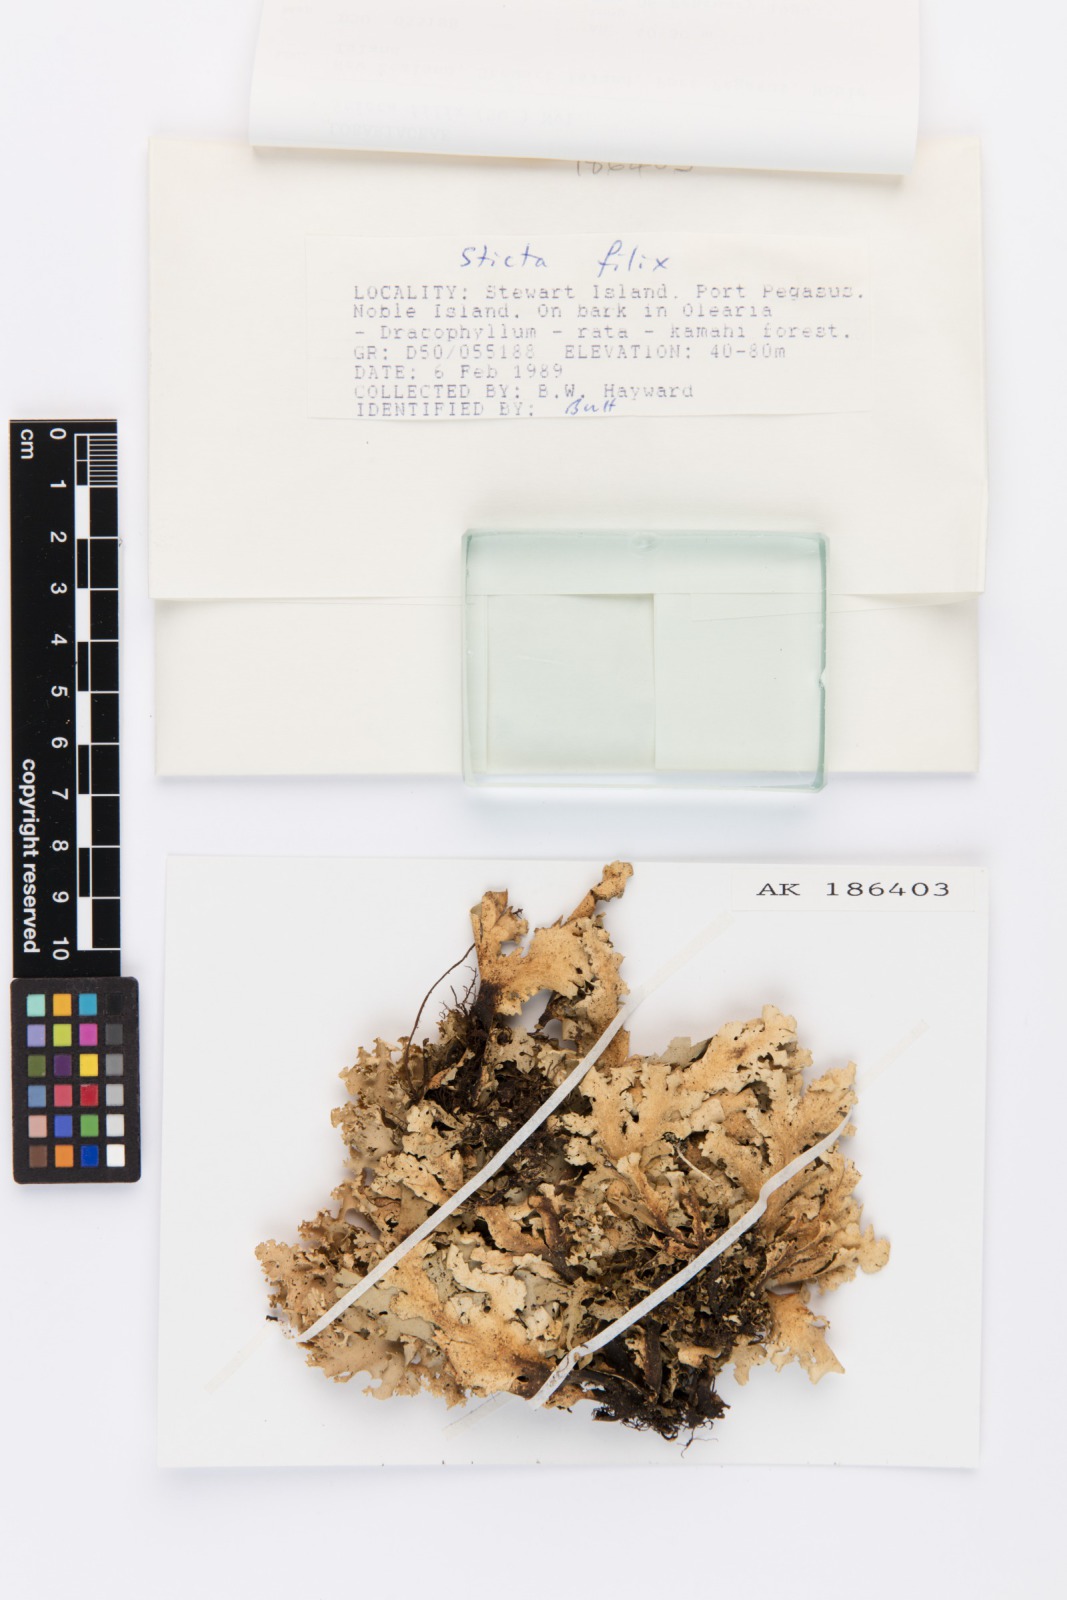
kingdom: Fungi
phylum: Ascomycota
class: Lecanoromycetes
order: Peltigerales
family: Lobariaceae
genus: Sticta
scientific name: Sticta filix
